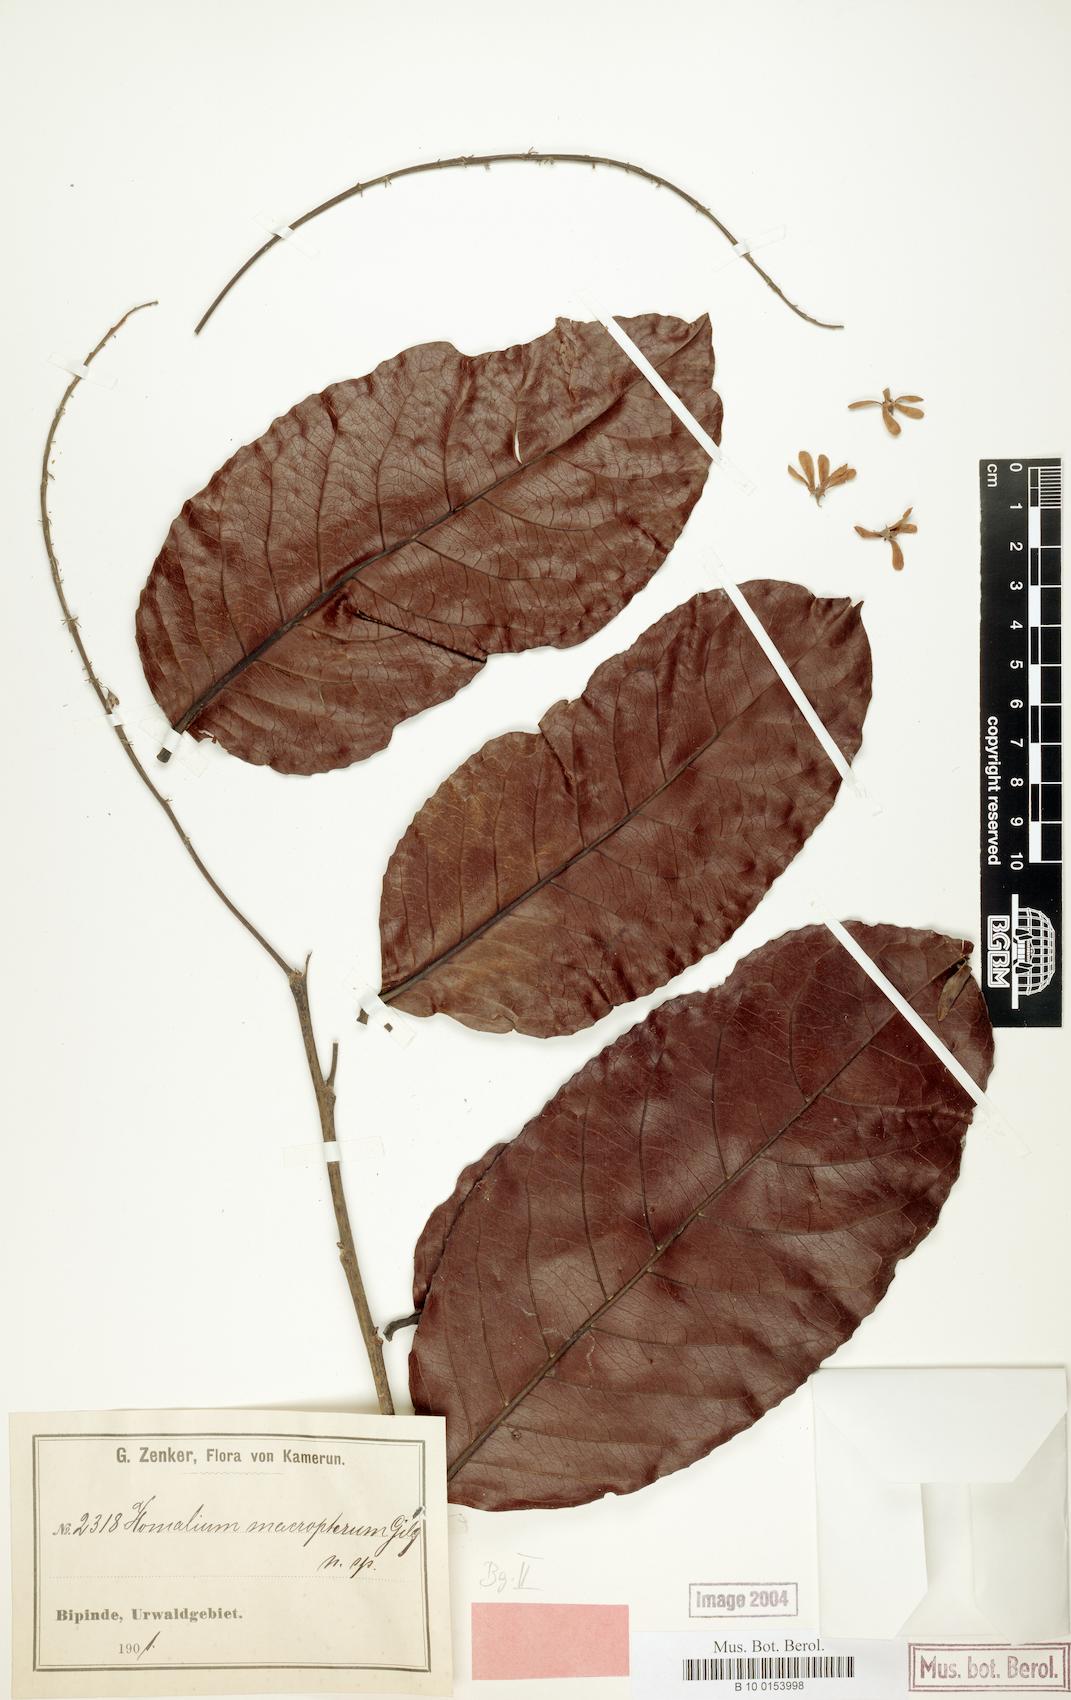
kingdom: Plantae
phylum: Tracheophyta
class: Magnoliopsida
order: Malpighiales
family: Salicaceae
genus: Homalium
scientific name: Homalium longistylum
